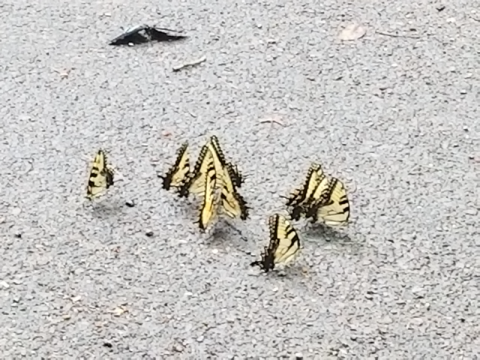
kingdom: Animalia
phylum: Arthropoda
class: Insecta
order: Lepidoptera
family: Papilionidae
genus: Pterourus
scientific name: Pterourus canadensis
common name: Canadian Tiger Swallowtail
